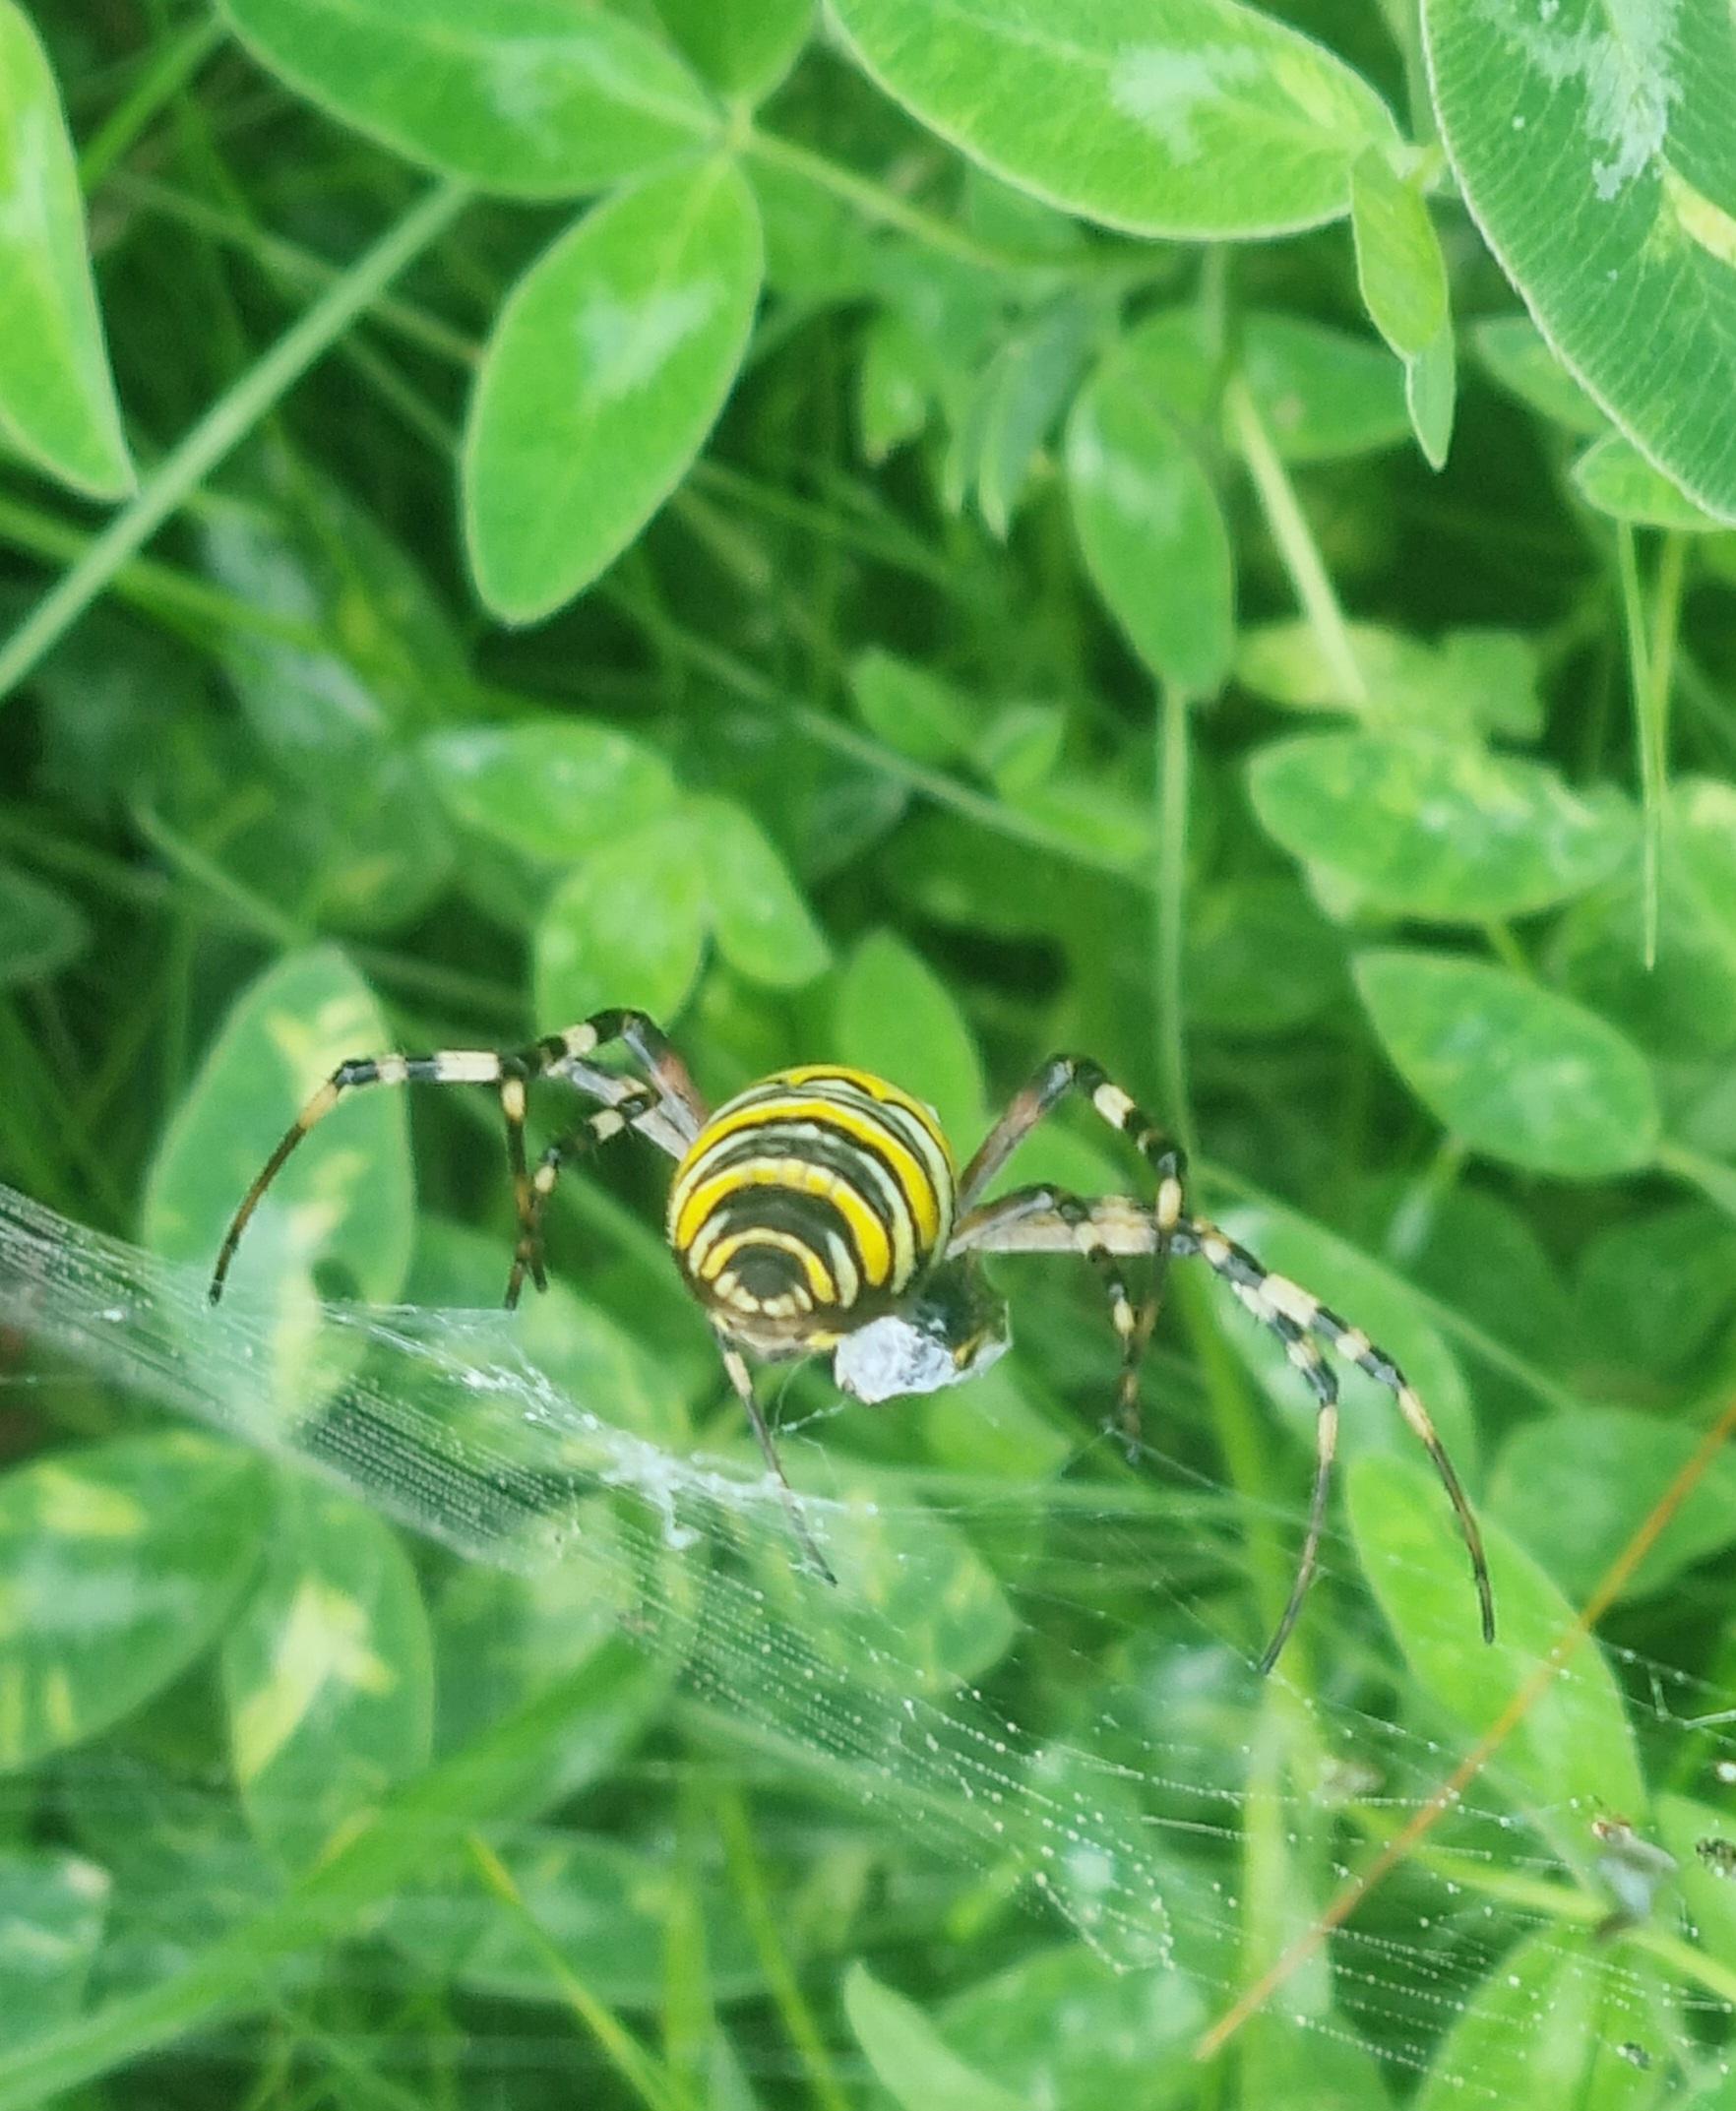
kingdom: Animalia
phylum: Arthropoda
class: Arachnida
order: Araneae
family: Araneidae
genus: Argiope
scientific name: Argiope bruennichi
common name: Hvepseedderkop
